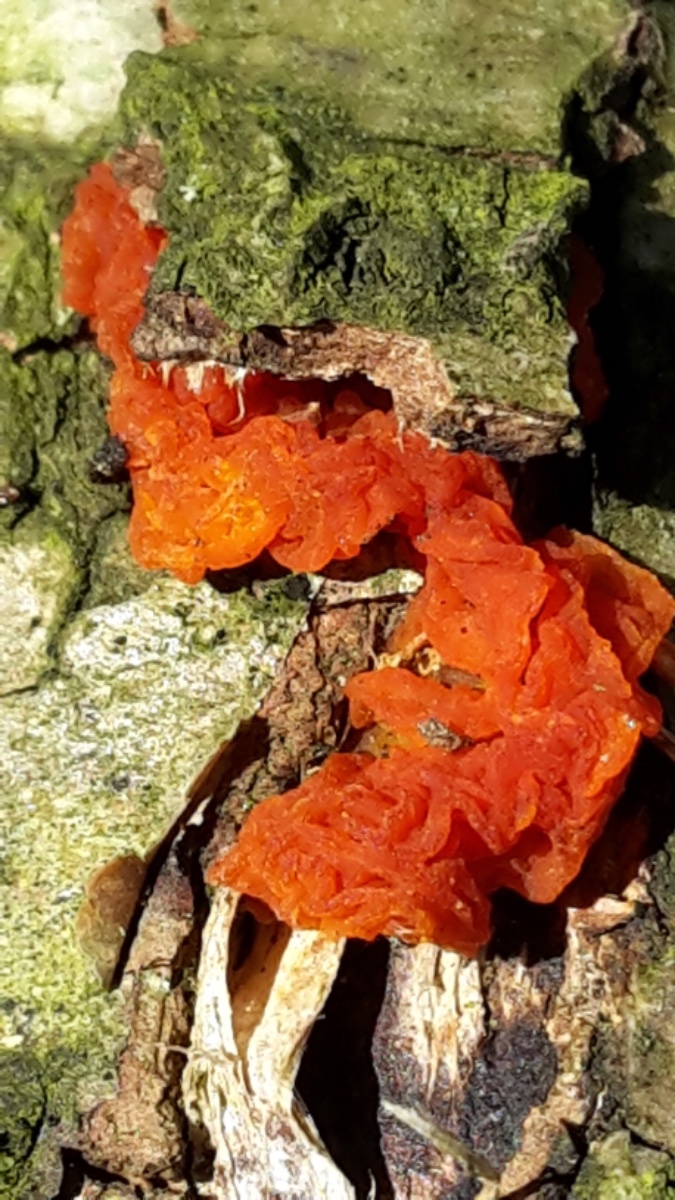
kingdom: Fungi
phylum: Basidiomycota
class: Tremellomycetes
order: Tremellales
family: Tremellaceae
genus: Tremella
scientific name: Tremella mesenterica
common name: gul bævresvamp
